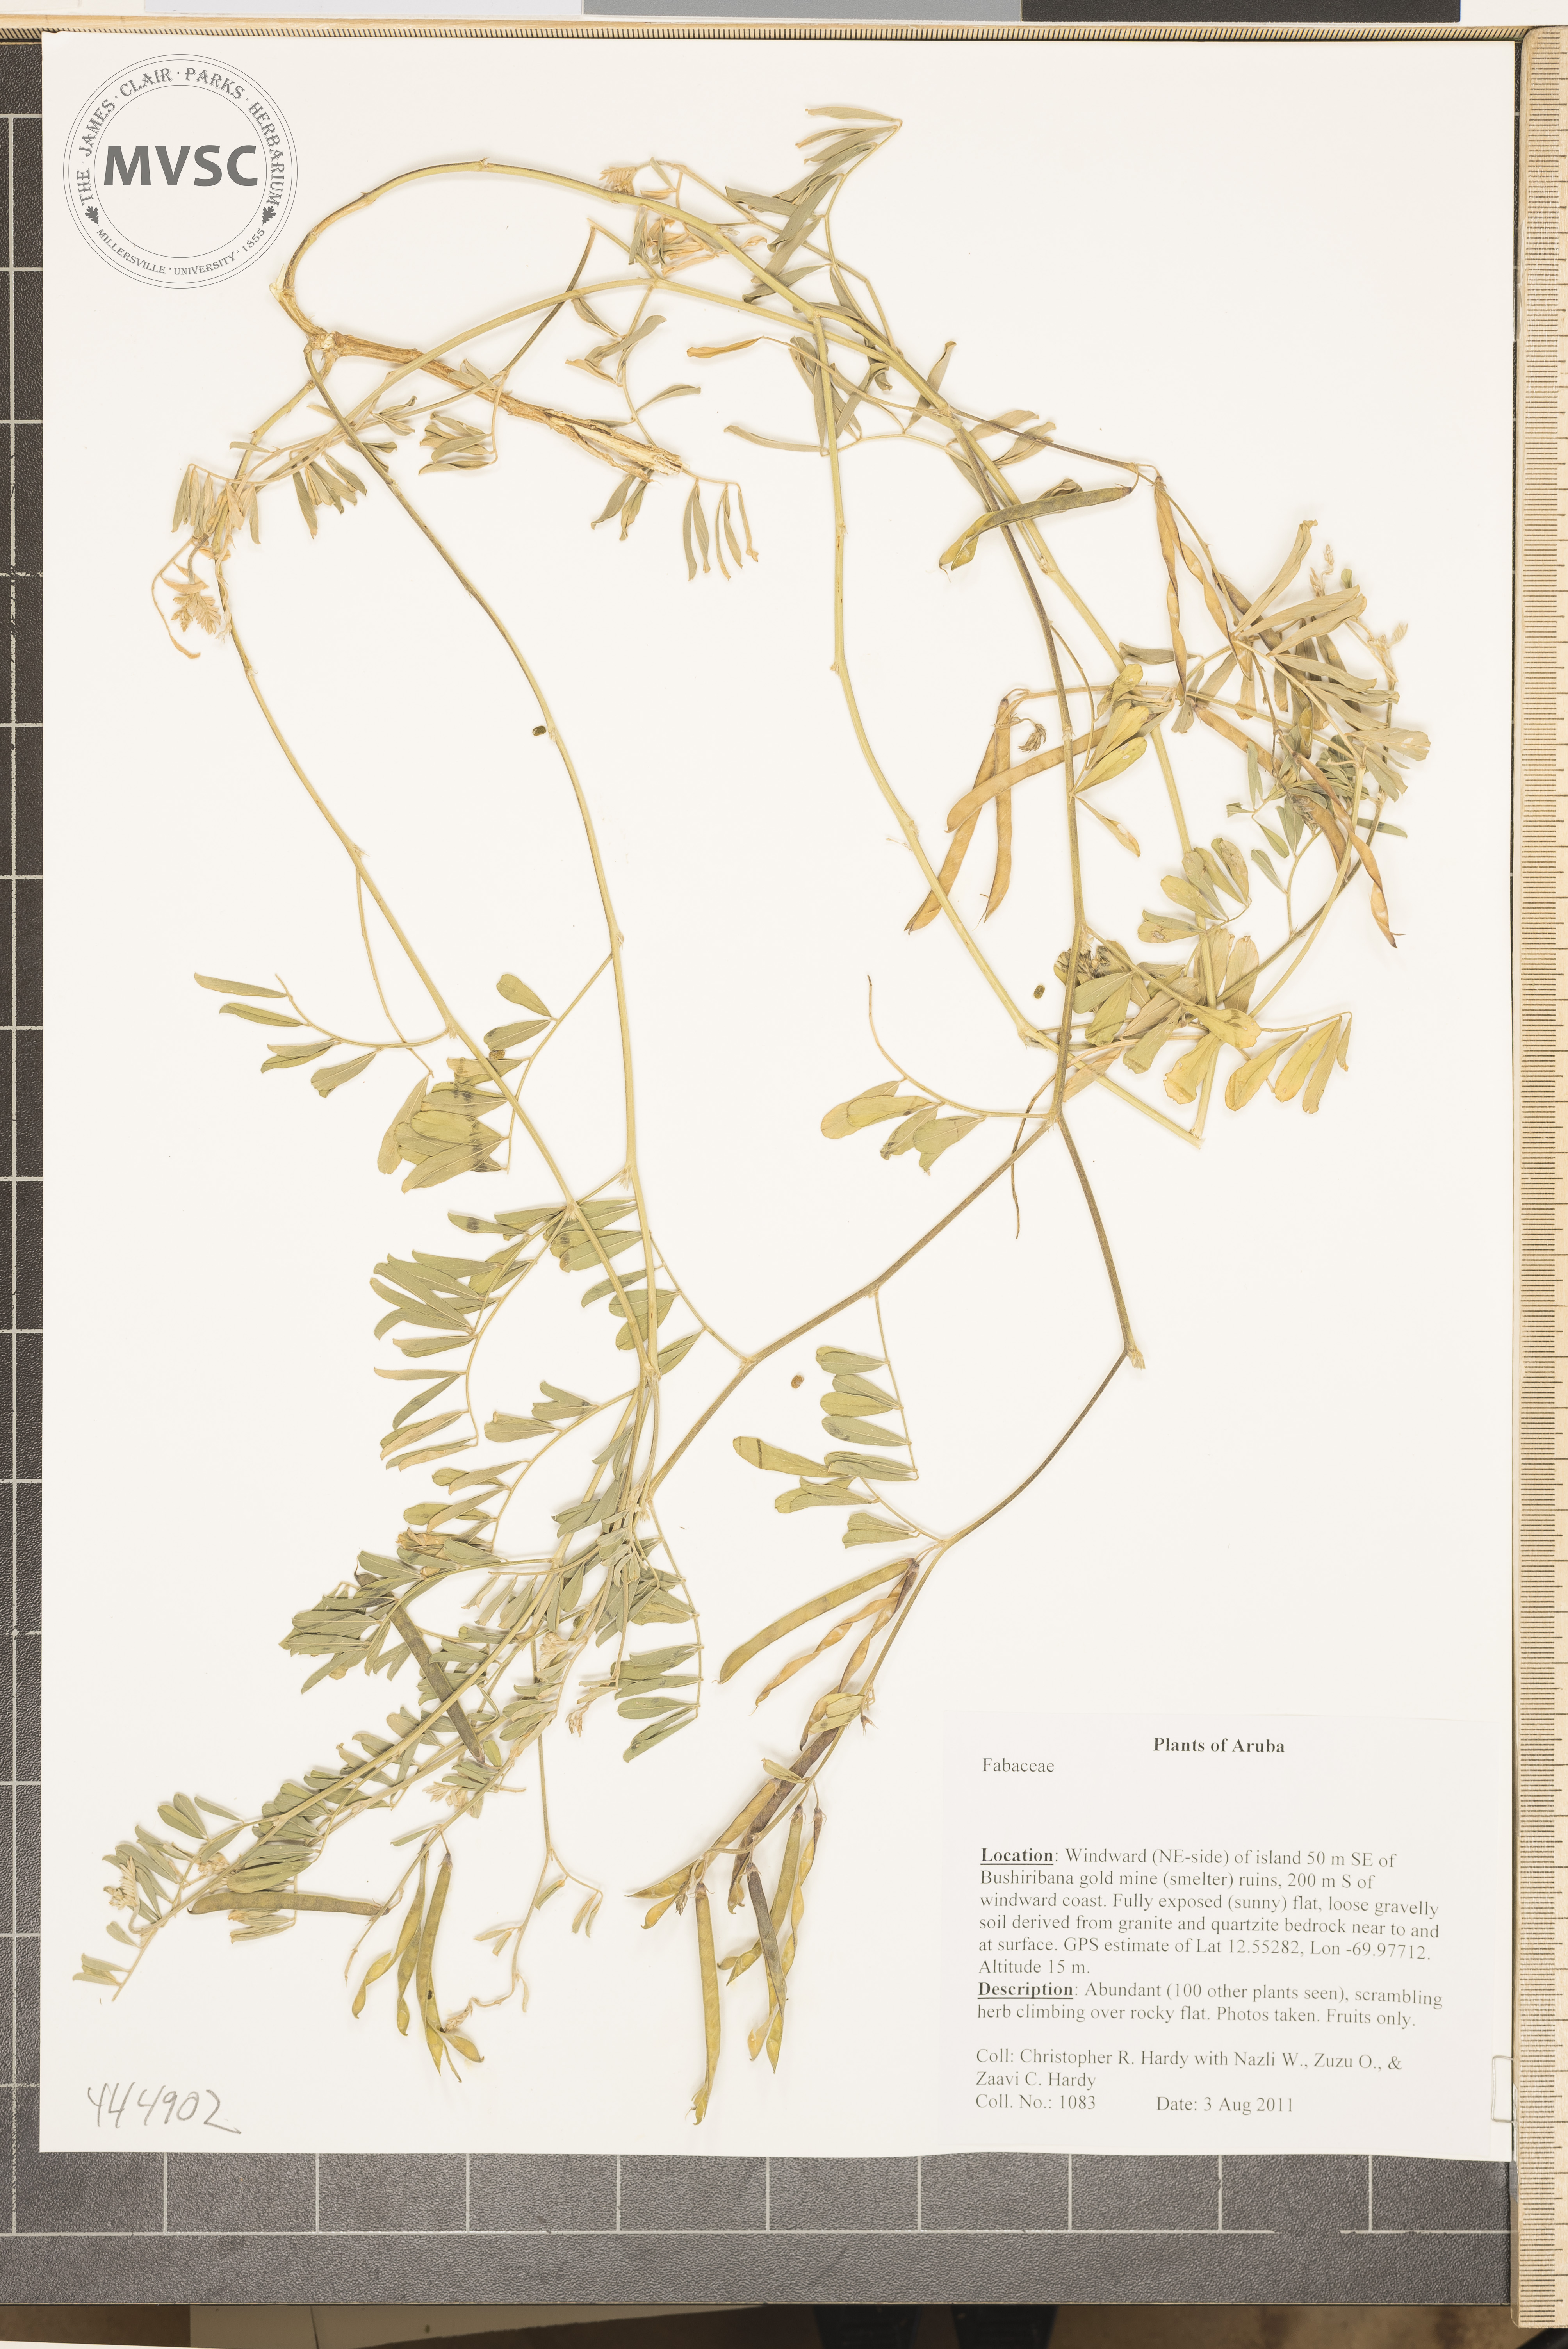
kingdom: Plantae
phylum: Tracheophyta
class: Magnoliopsida
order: Fabales
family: Fabaceae
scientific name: Fabaceae
